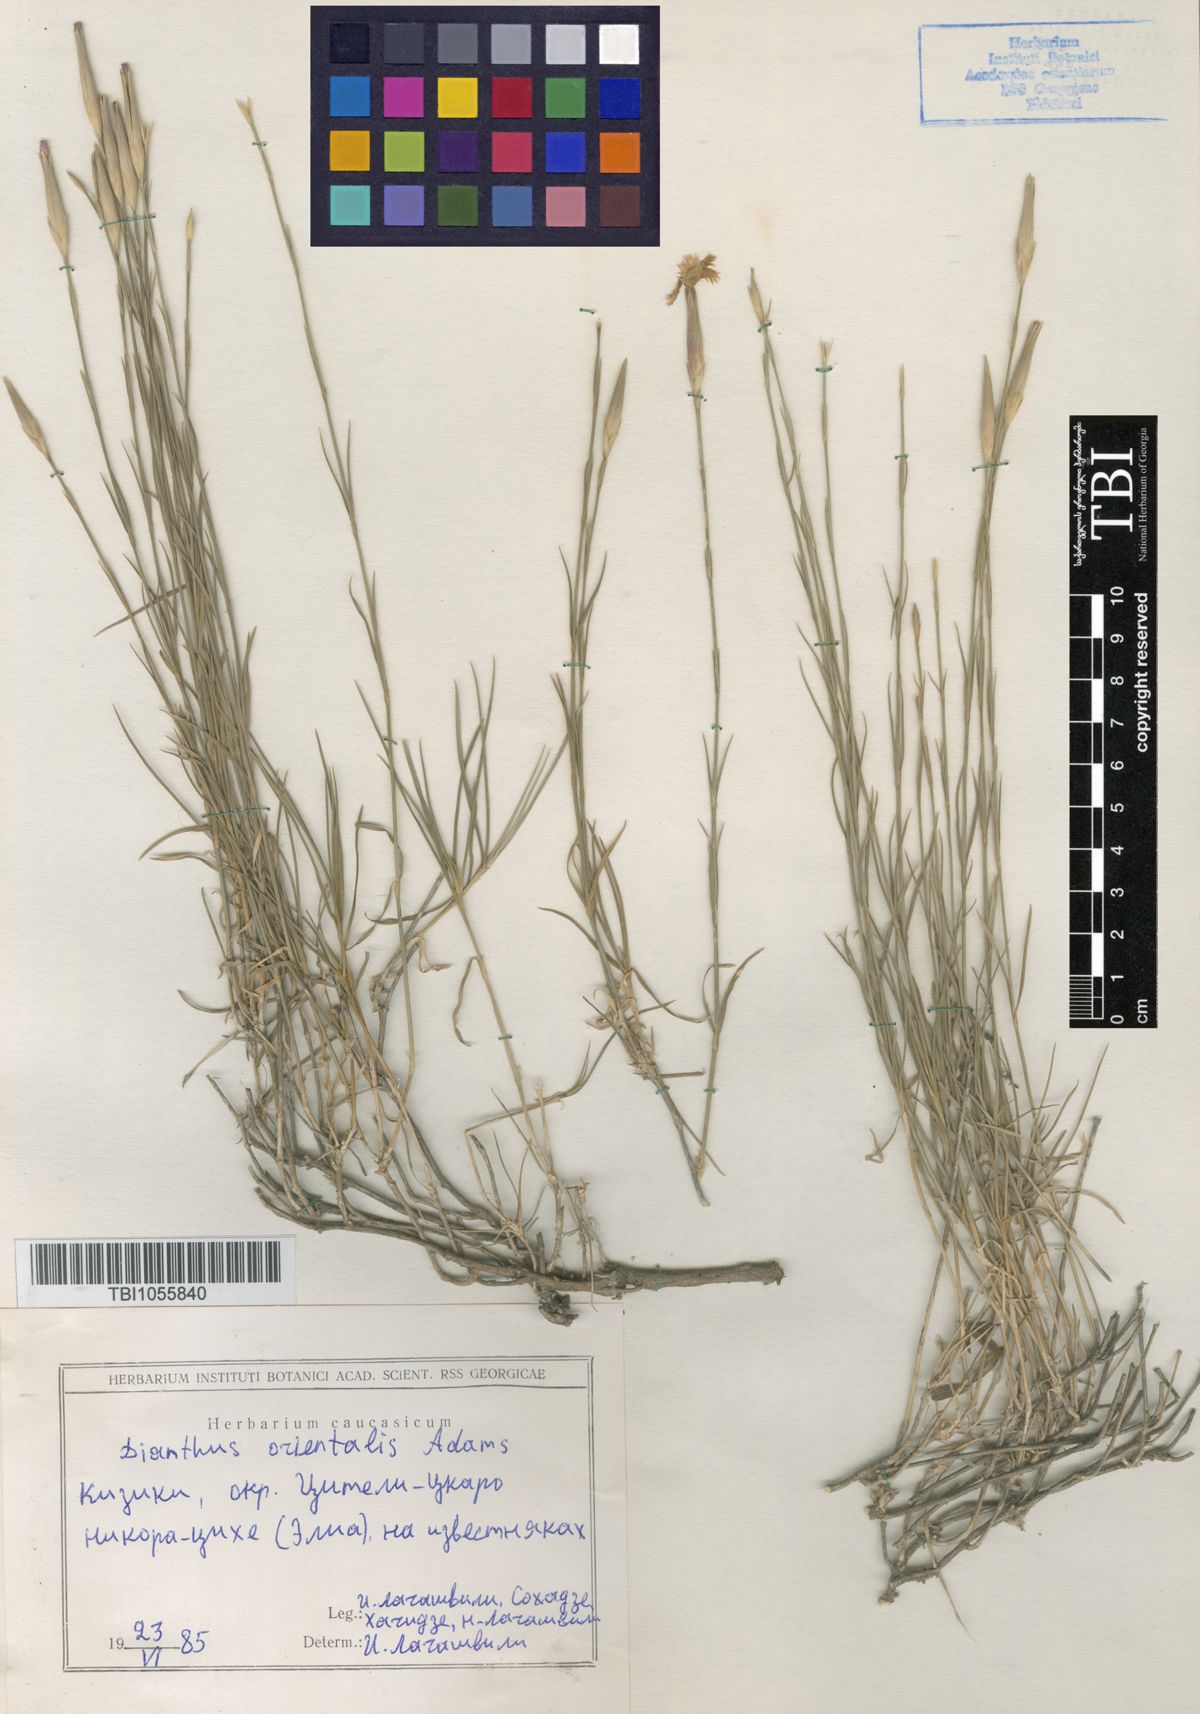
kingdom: Plantae
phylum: Tracheophyta
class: Magnoliopsida
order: Caryophyllales
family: Caryophyllaceae
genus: Dianthus
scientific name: Dianthus orientalis
